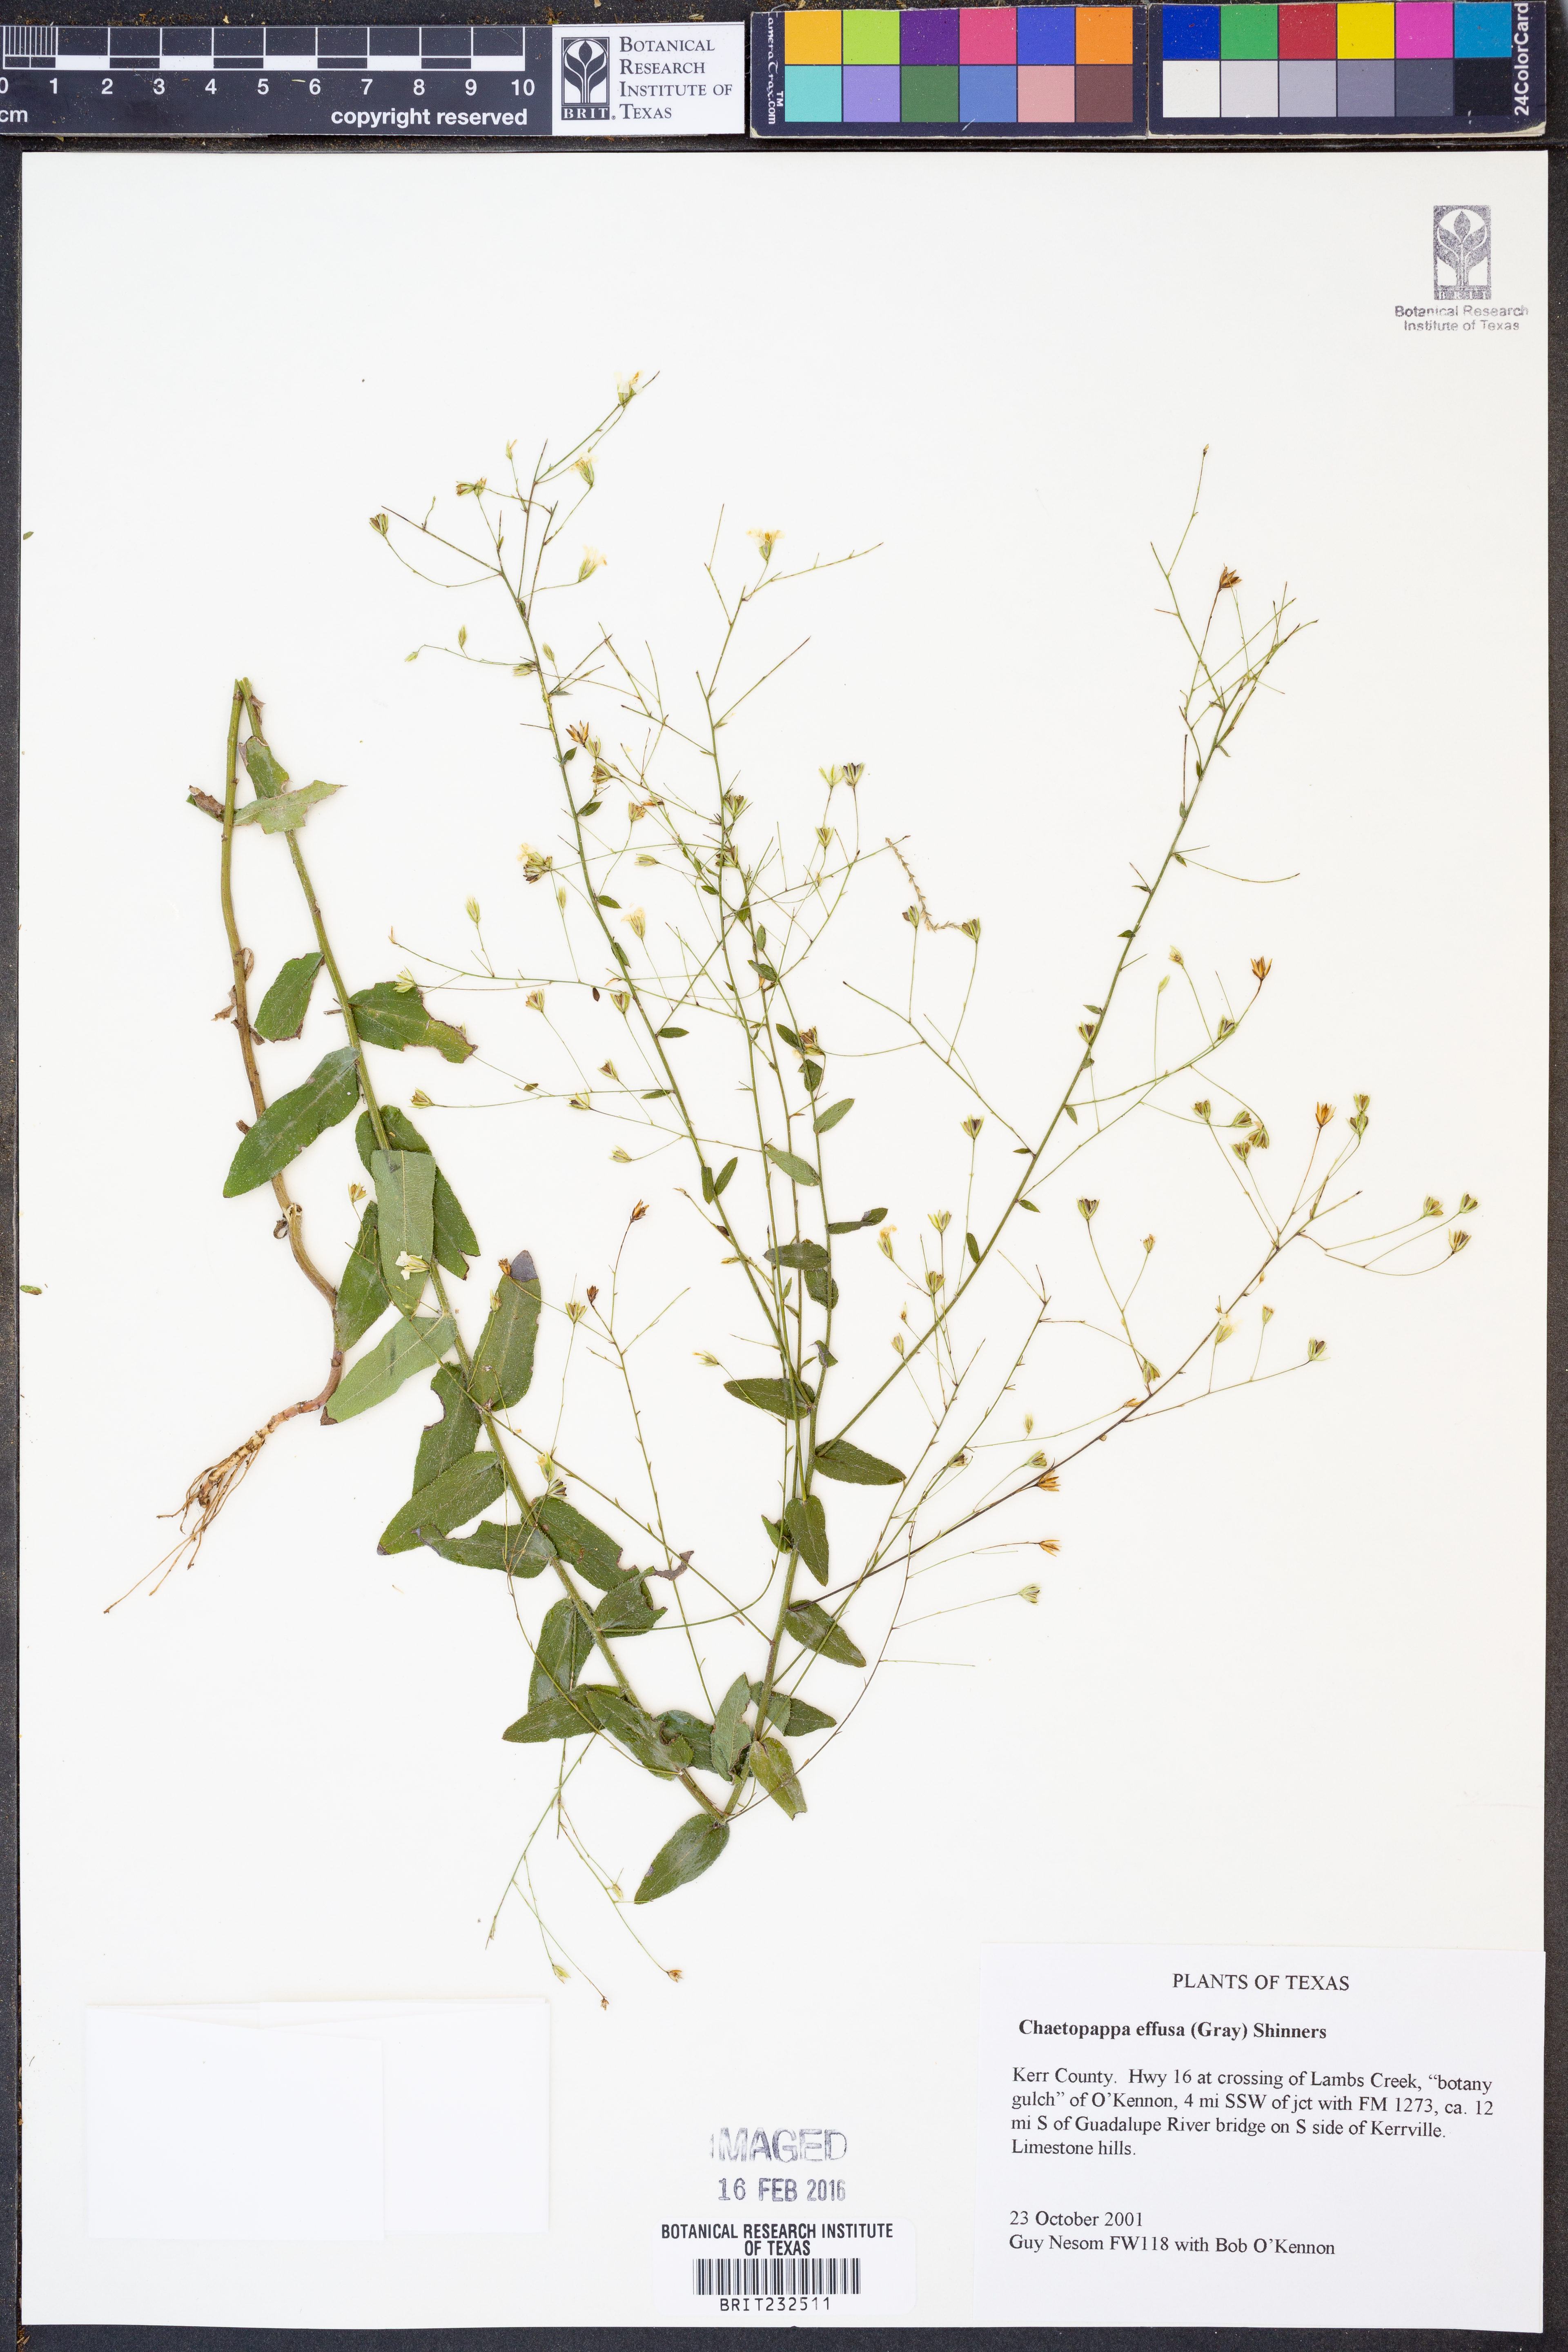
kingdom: Plantae
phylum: Tracheophyta
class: Magnoliopsida
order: Asterales
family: Asteraceae
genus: Chaetopappa
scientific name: Chaetopappa effusa
